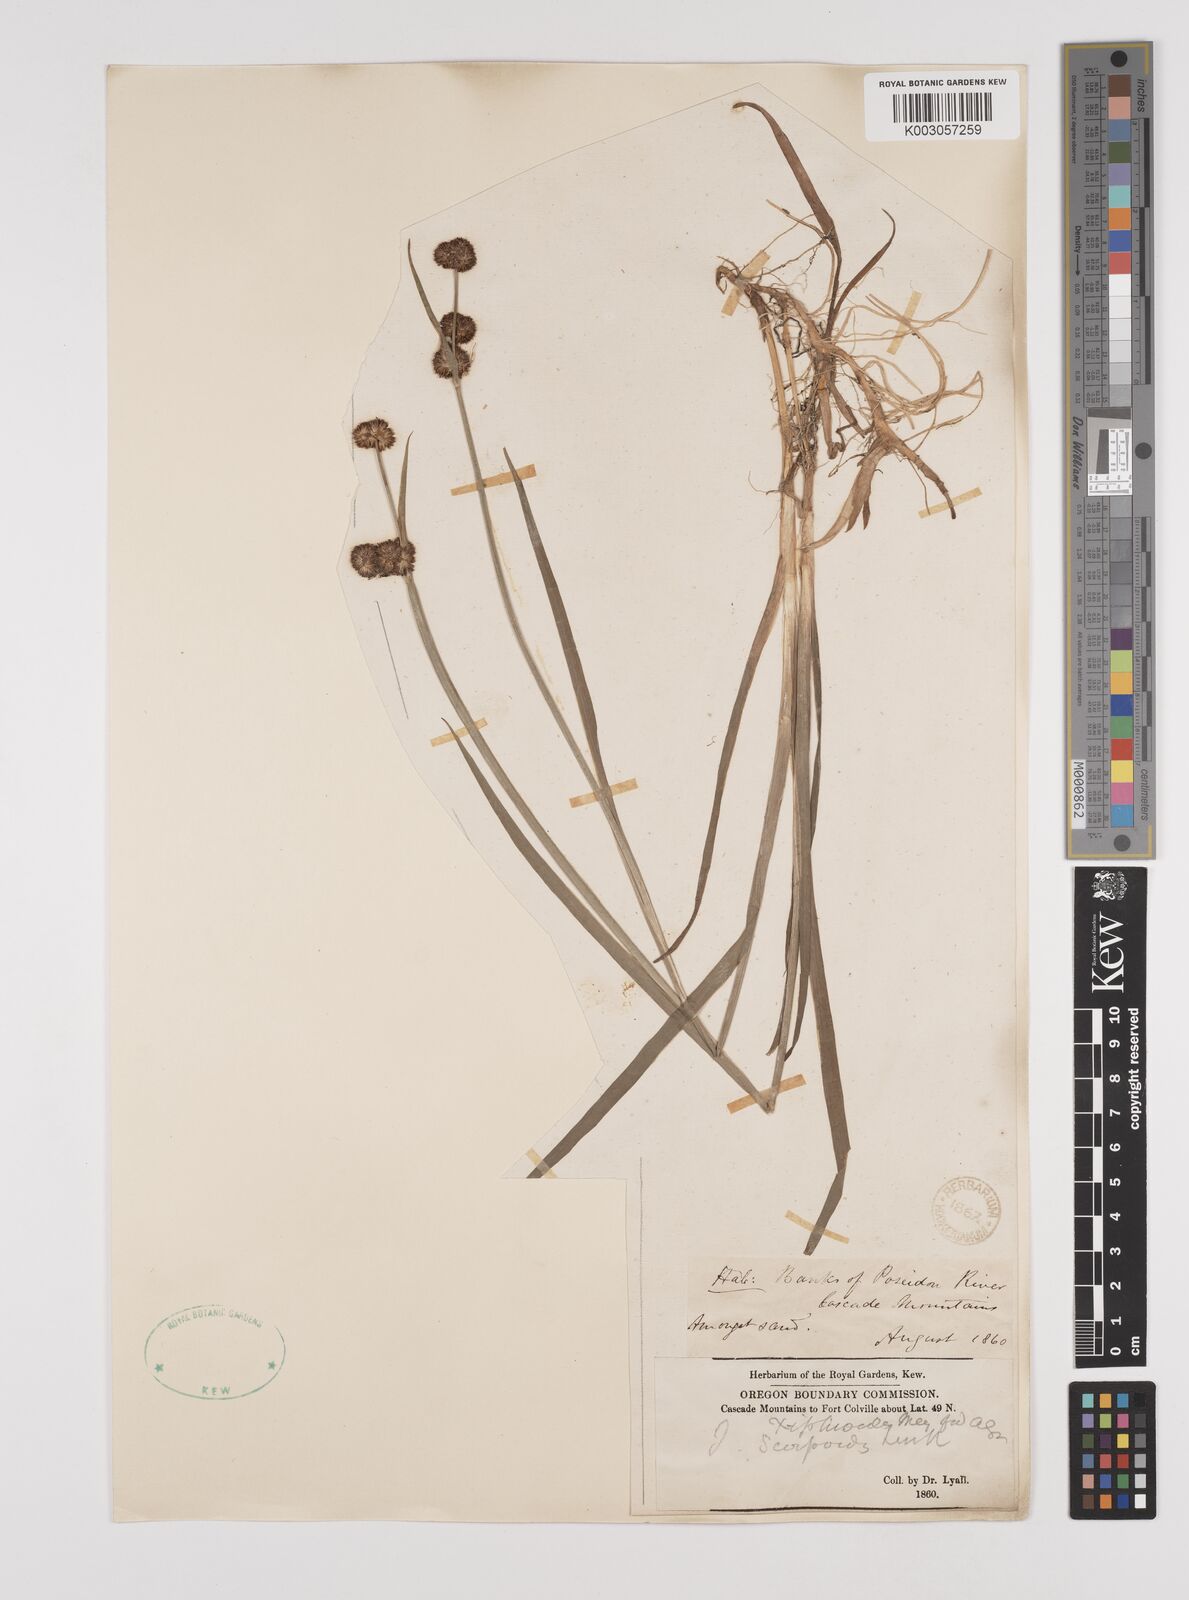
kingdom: Plantae
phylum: Tracheophyta
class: Liliopsida
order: Poales
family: Juncaceae
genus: Juncus
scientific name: Juncus xiphioides
